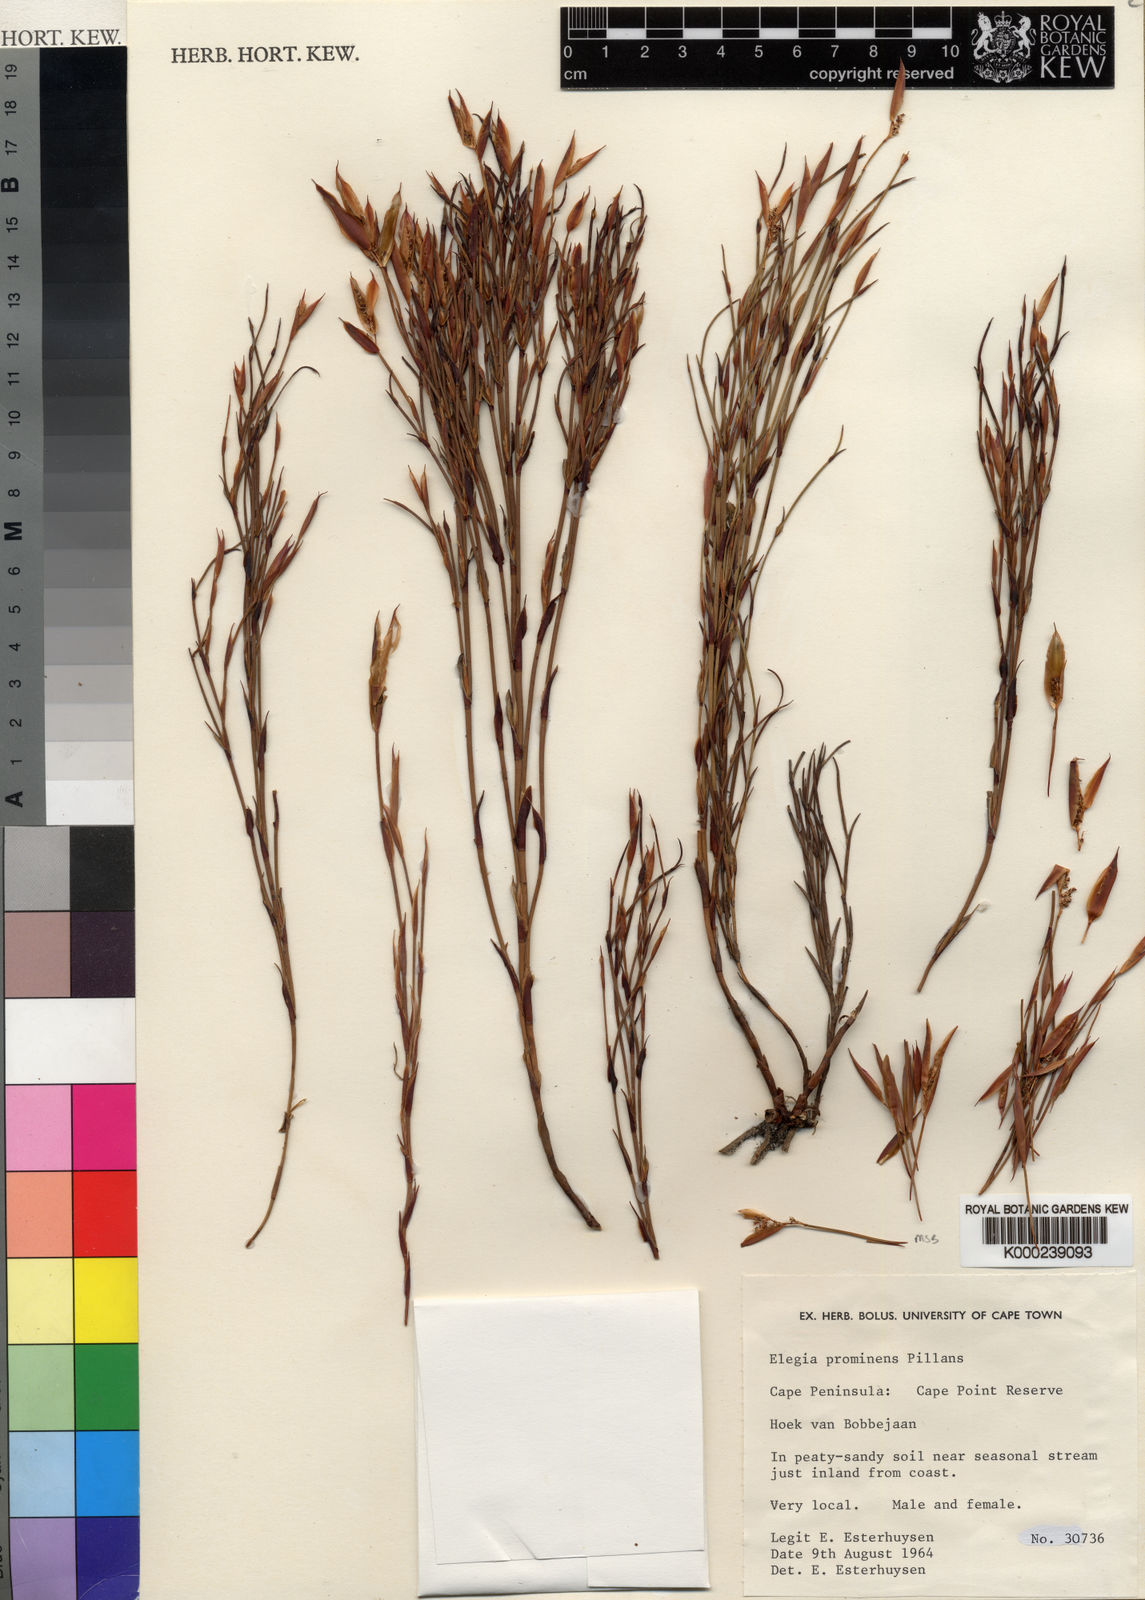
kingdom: Plantae
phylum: Tracheophyta
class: Liliopsida
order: Poales
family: Restionaceae
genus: Elegia
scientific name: Elegia prominens
